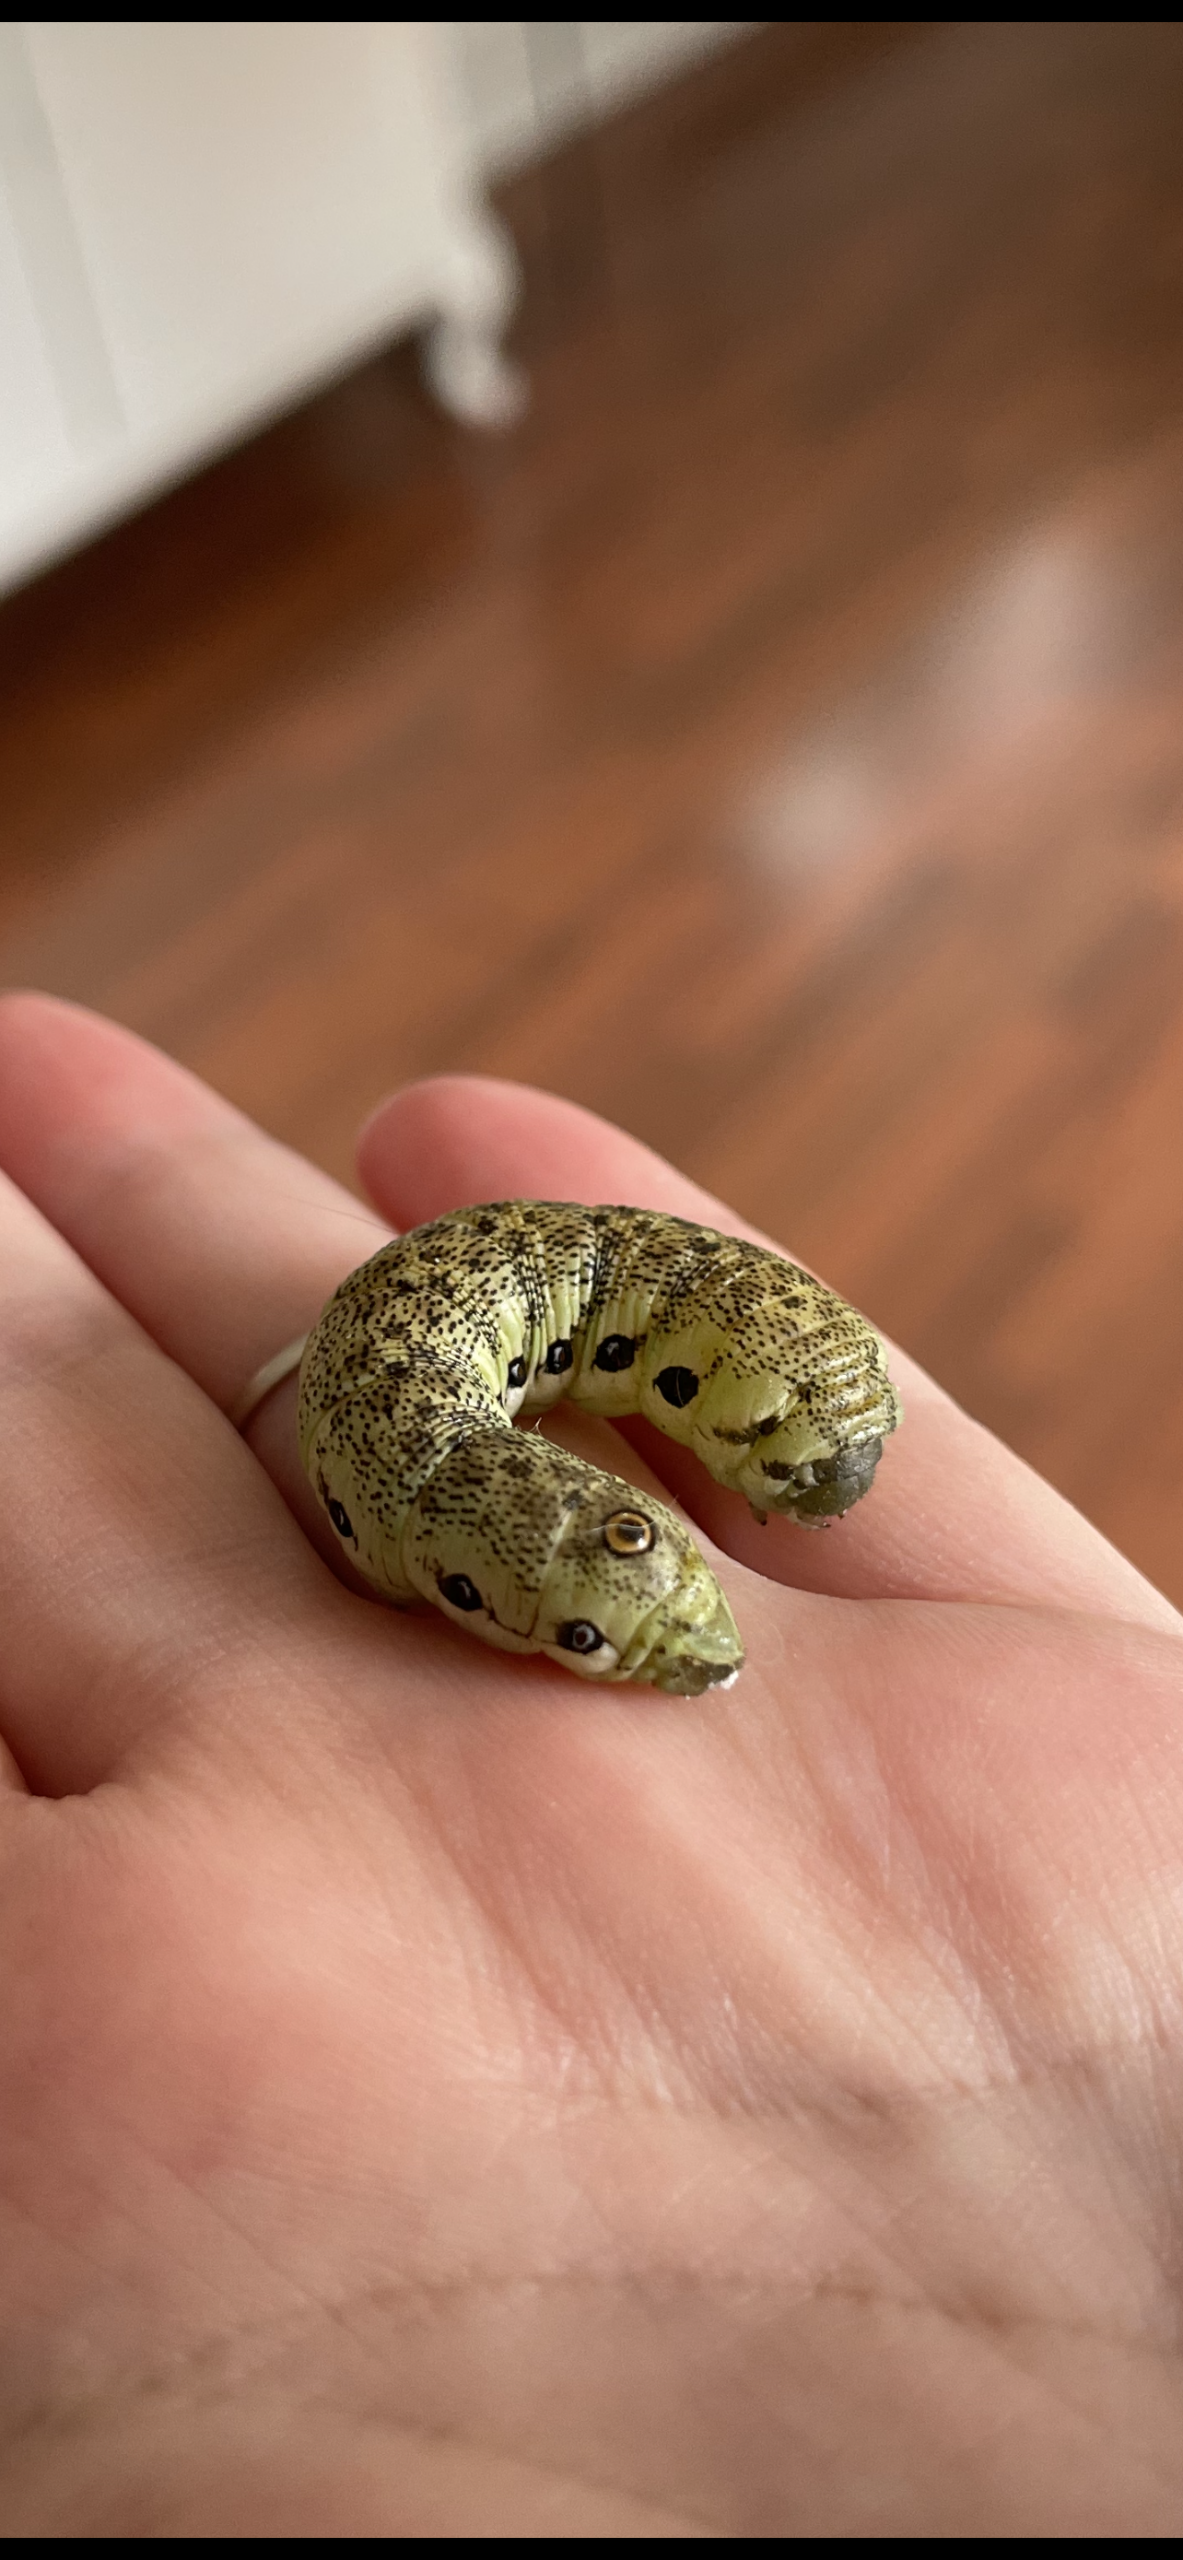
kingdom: Animalia
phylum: Arthropoda
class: Insecta
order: Lepidoptera
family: Sphingidae
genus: Proserpinus
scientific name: Proserpinus proserpina
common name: Natlyssværmer
